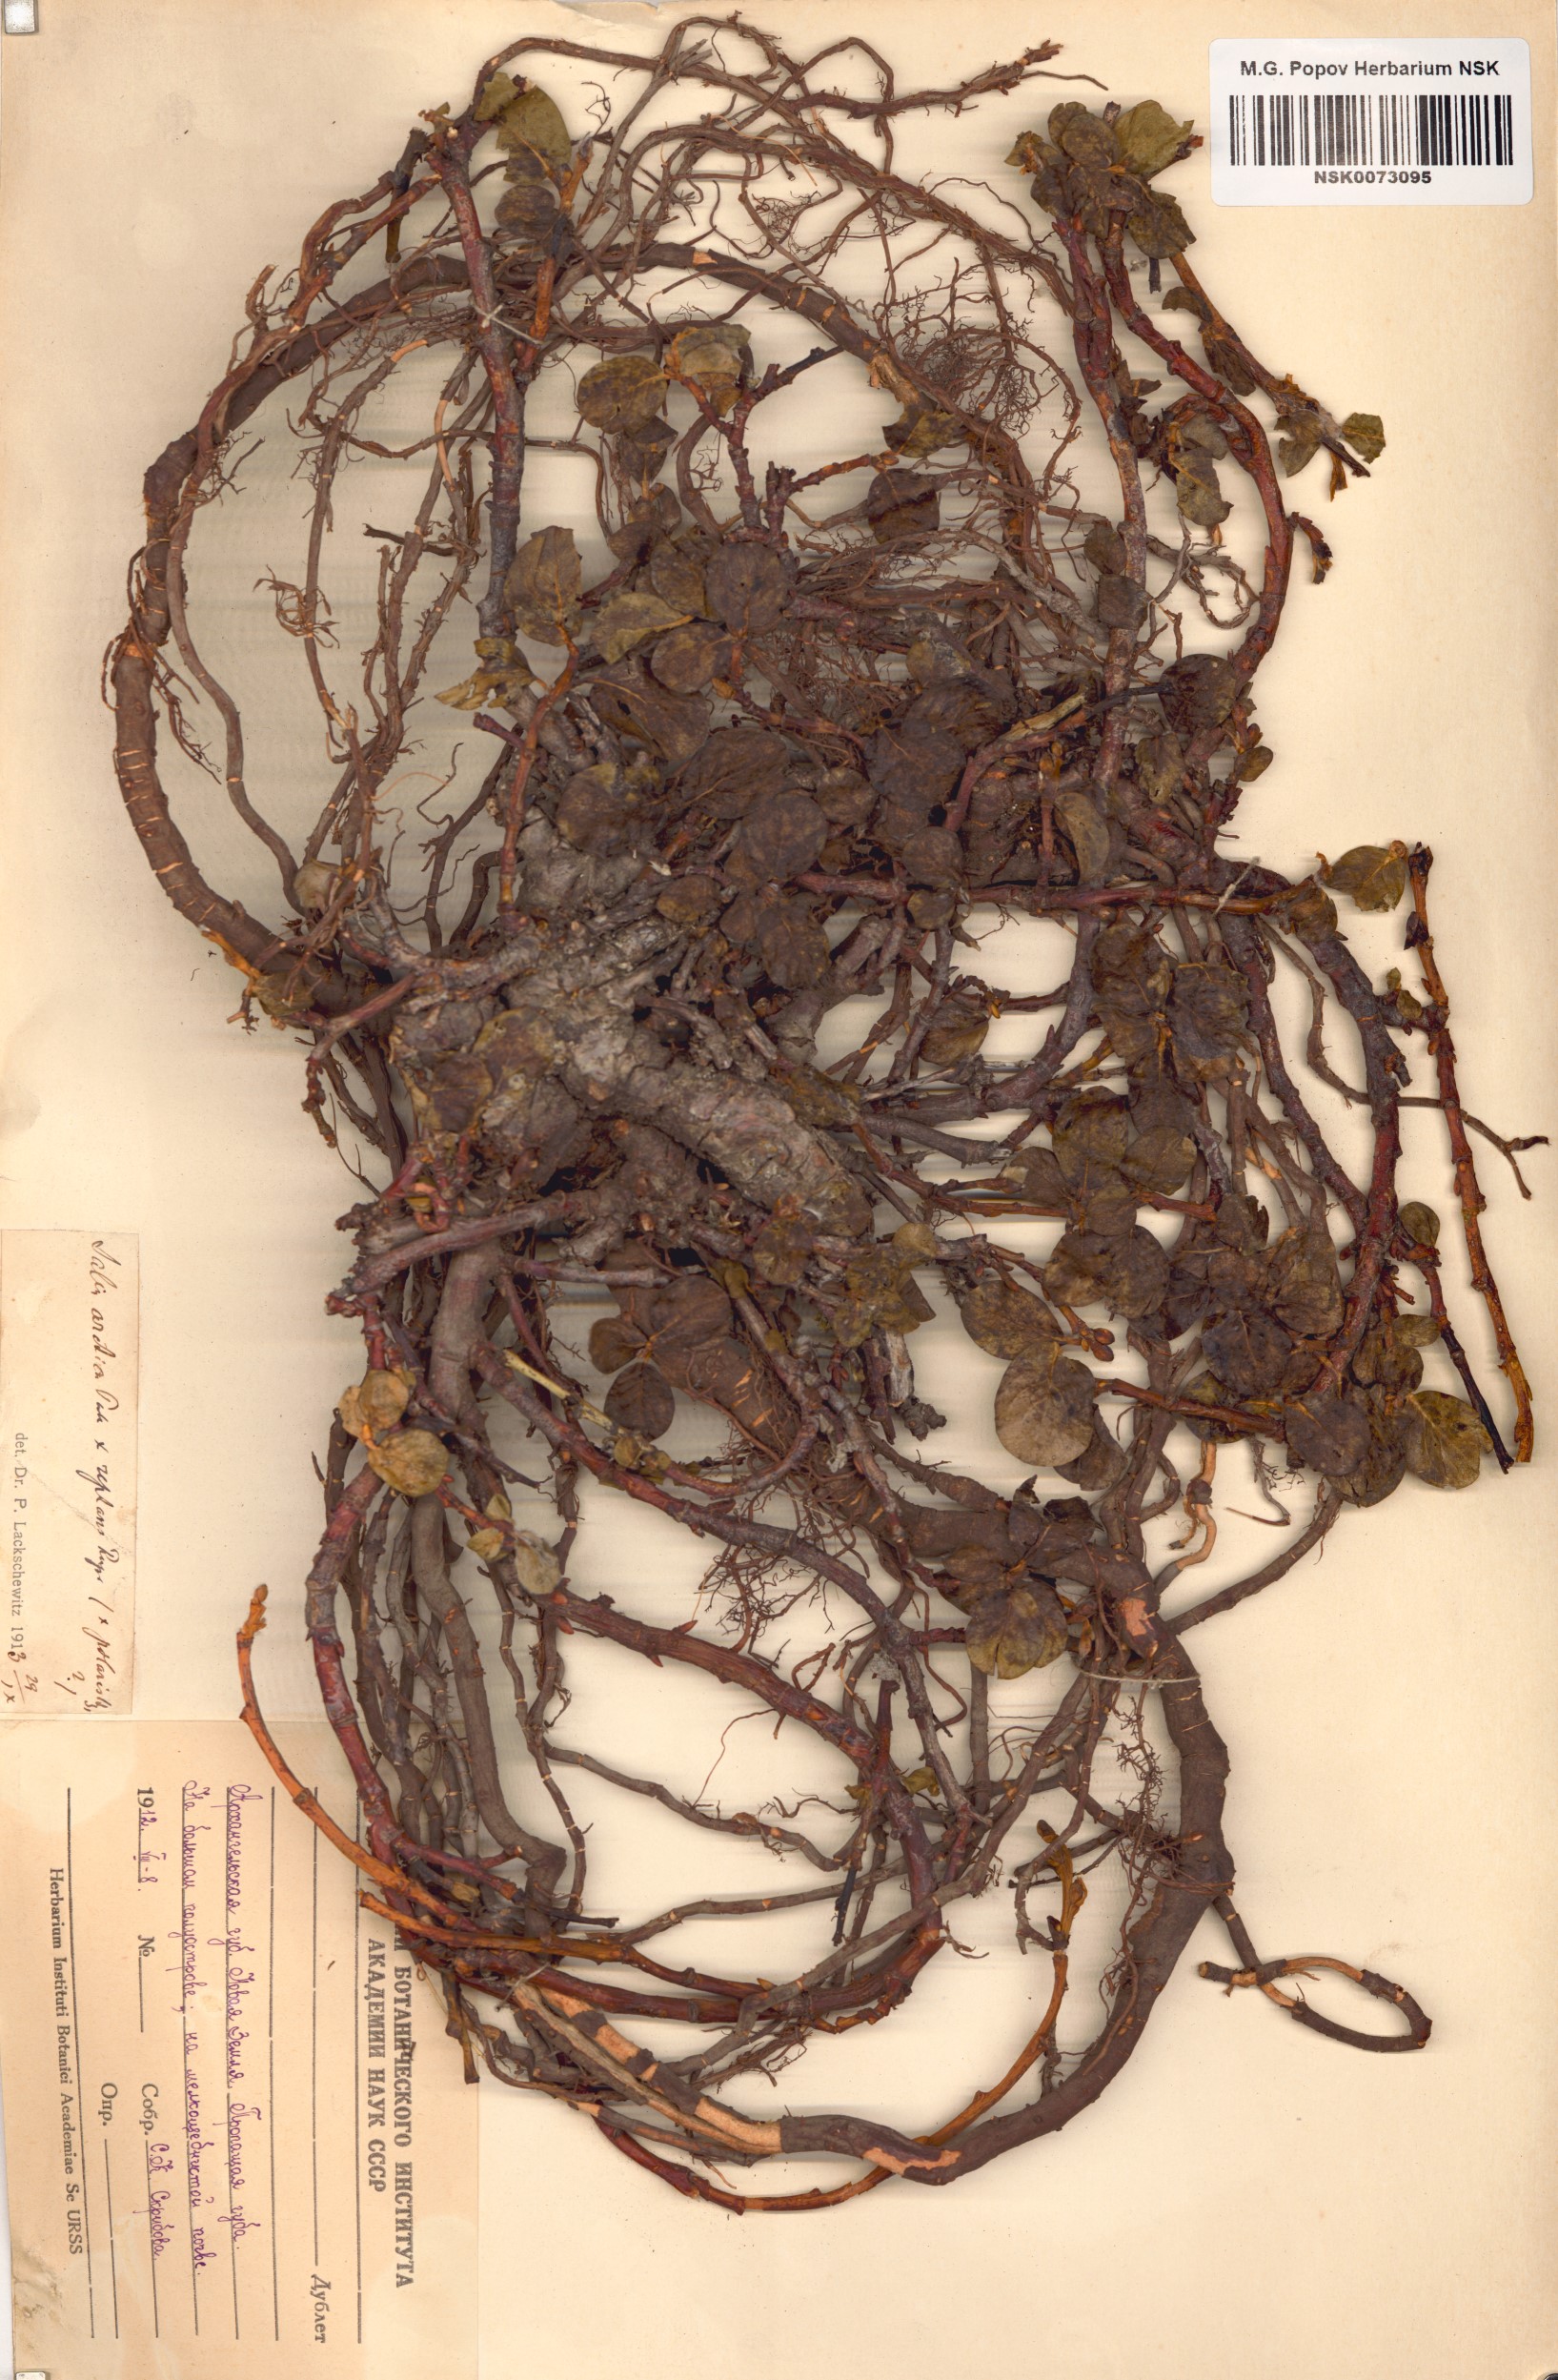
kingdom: Plantae
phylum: Tracheophyta
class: Magnoliopsida
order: Malpighiales
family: Salicaceae
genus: Salix
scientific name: Salix
